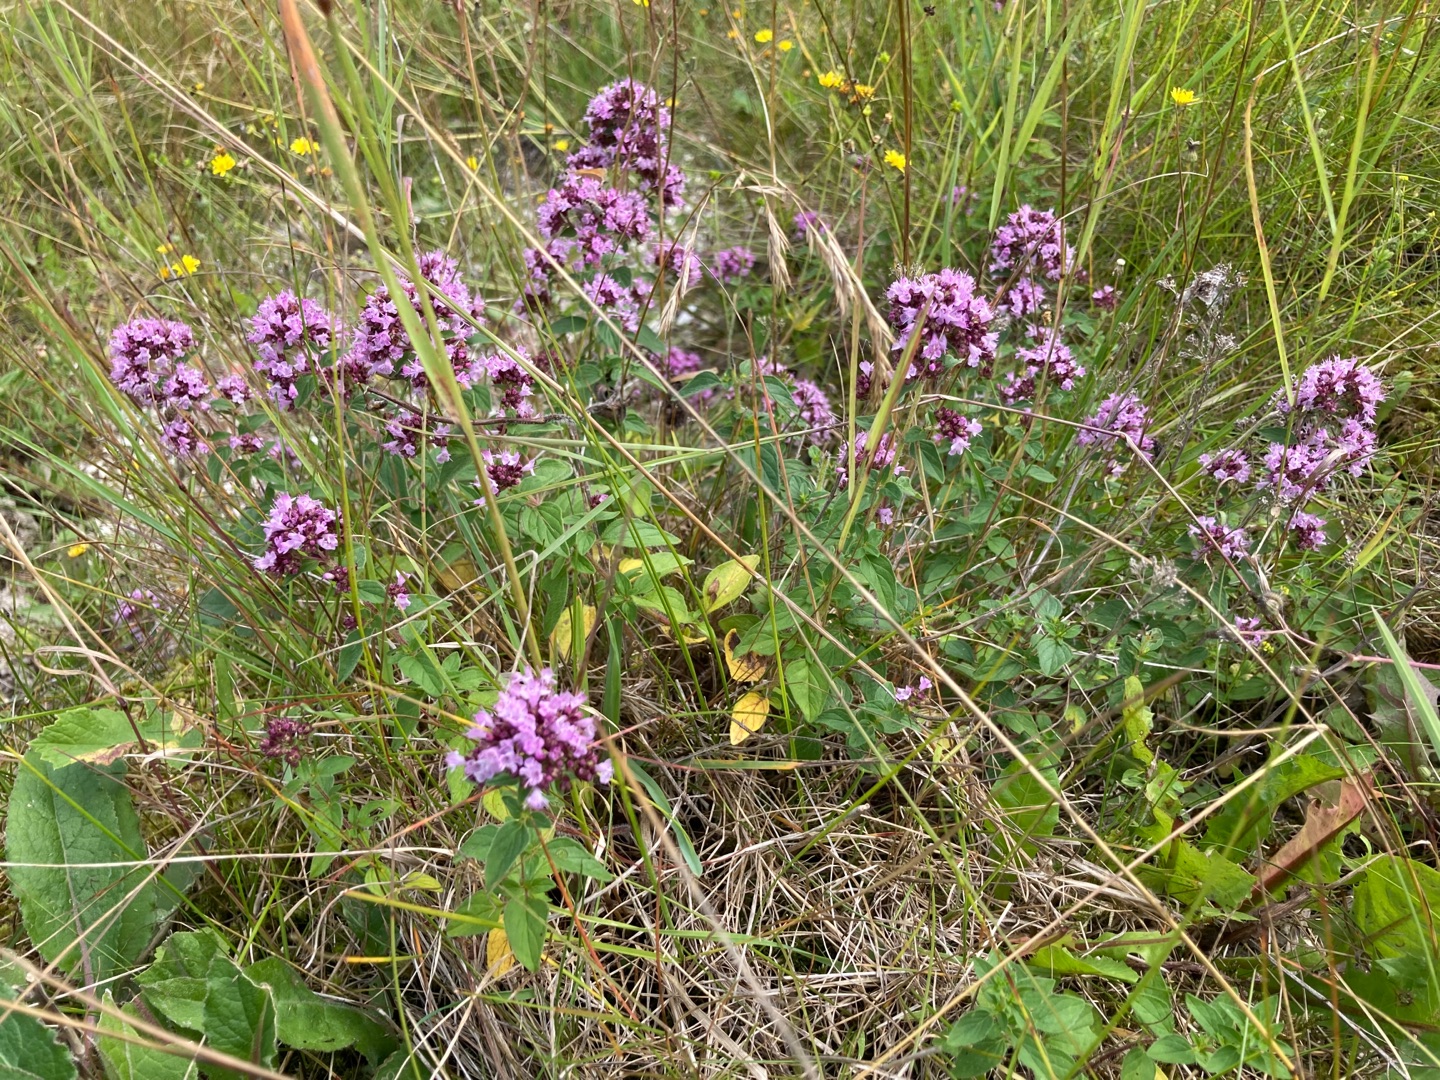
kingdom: Plantae
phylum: Tracheophyta
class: Magnoliopsida
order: Lamiales
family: Lamiaceae
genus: Origanum
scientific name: Origanum vulgare
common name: Merian
